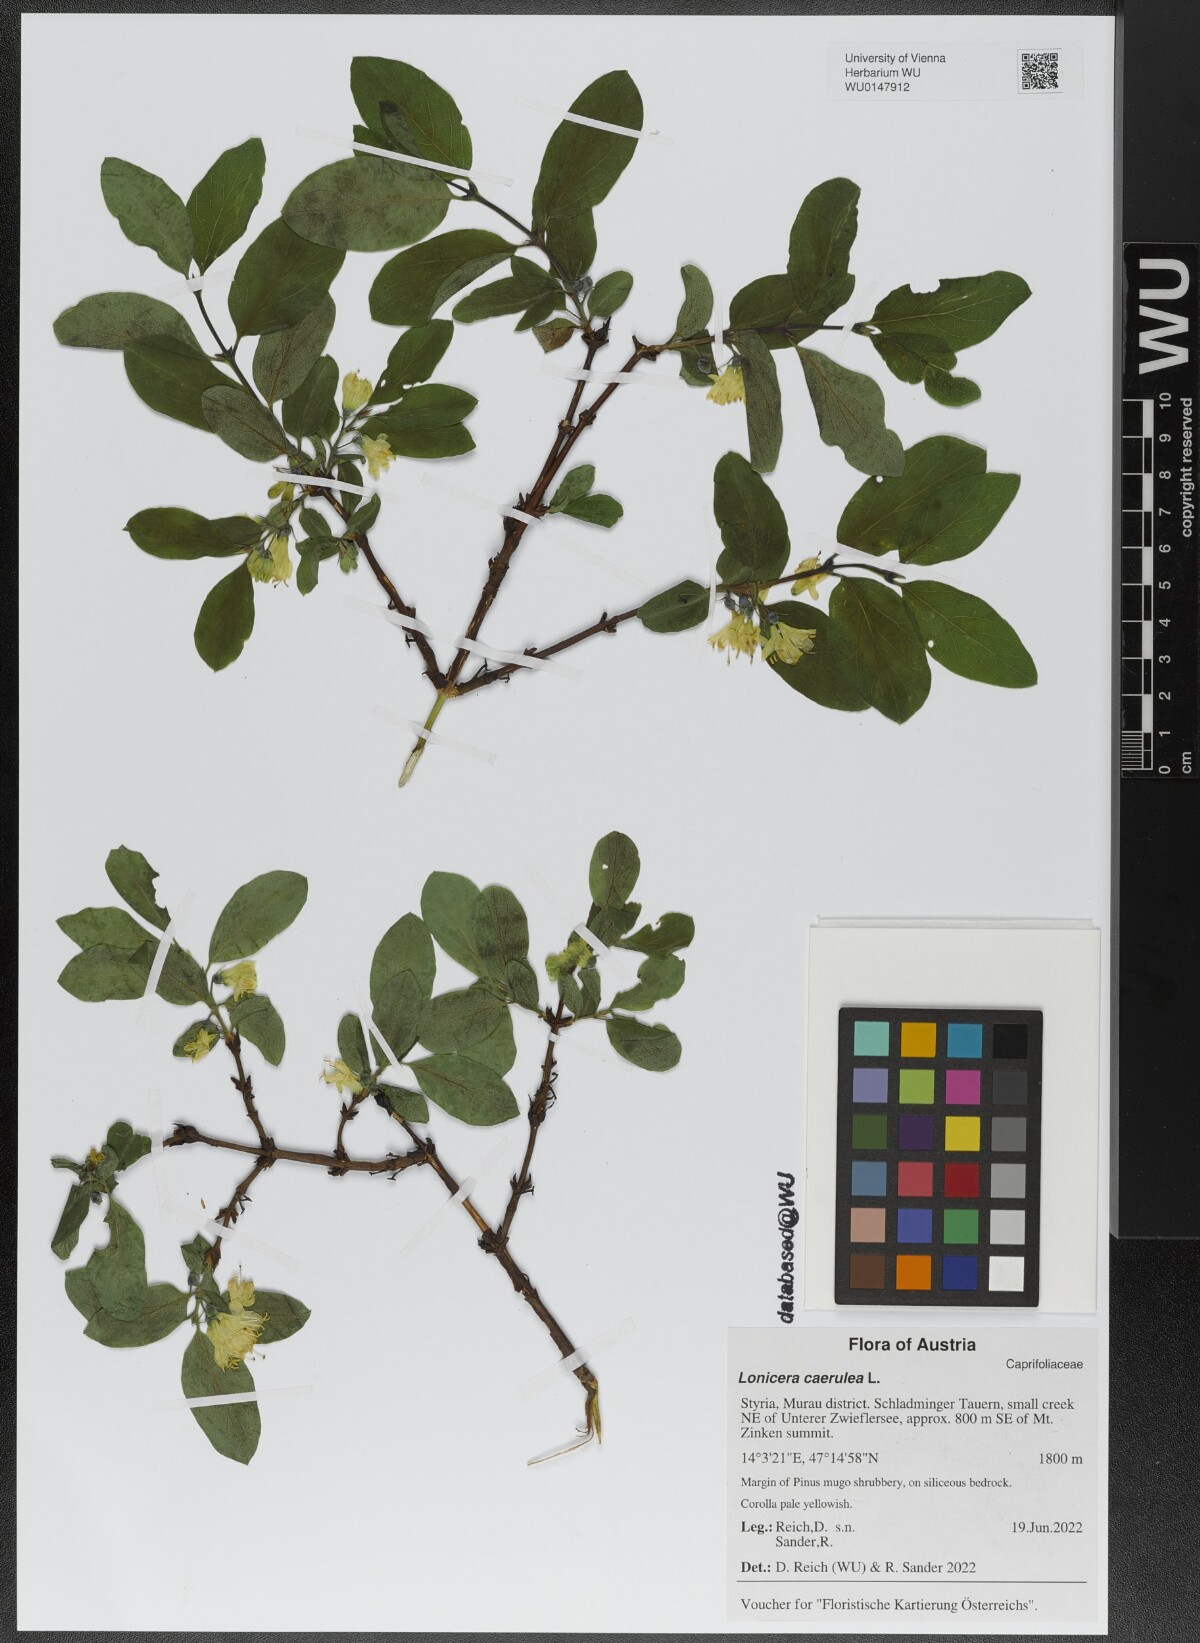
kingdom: Plantae
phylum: Tracheophyta
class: Magnoliopsida
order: Dipsacales
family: Caprifoliaceae
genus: Lonicera
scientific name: Lonicera caerulea
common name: Blue honeysuckle
